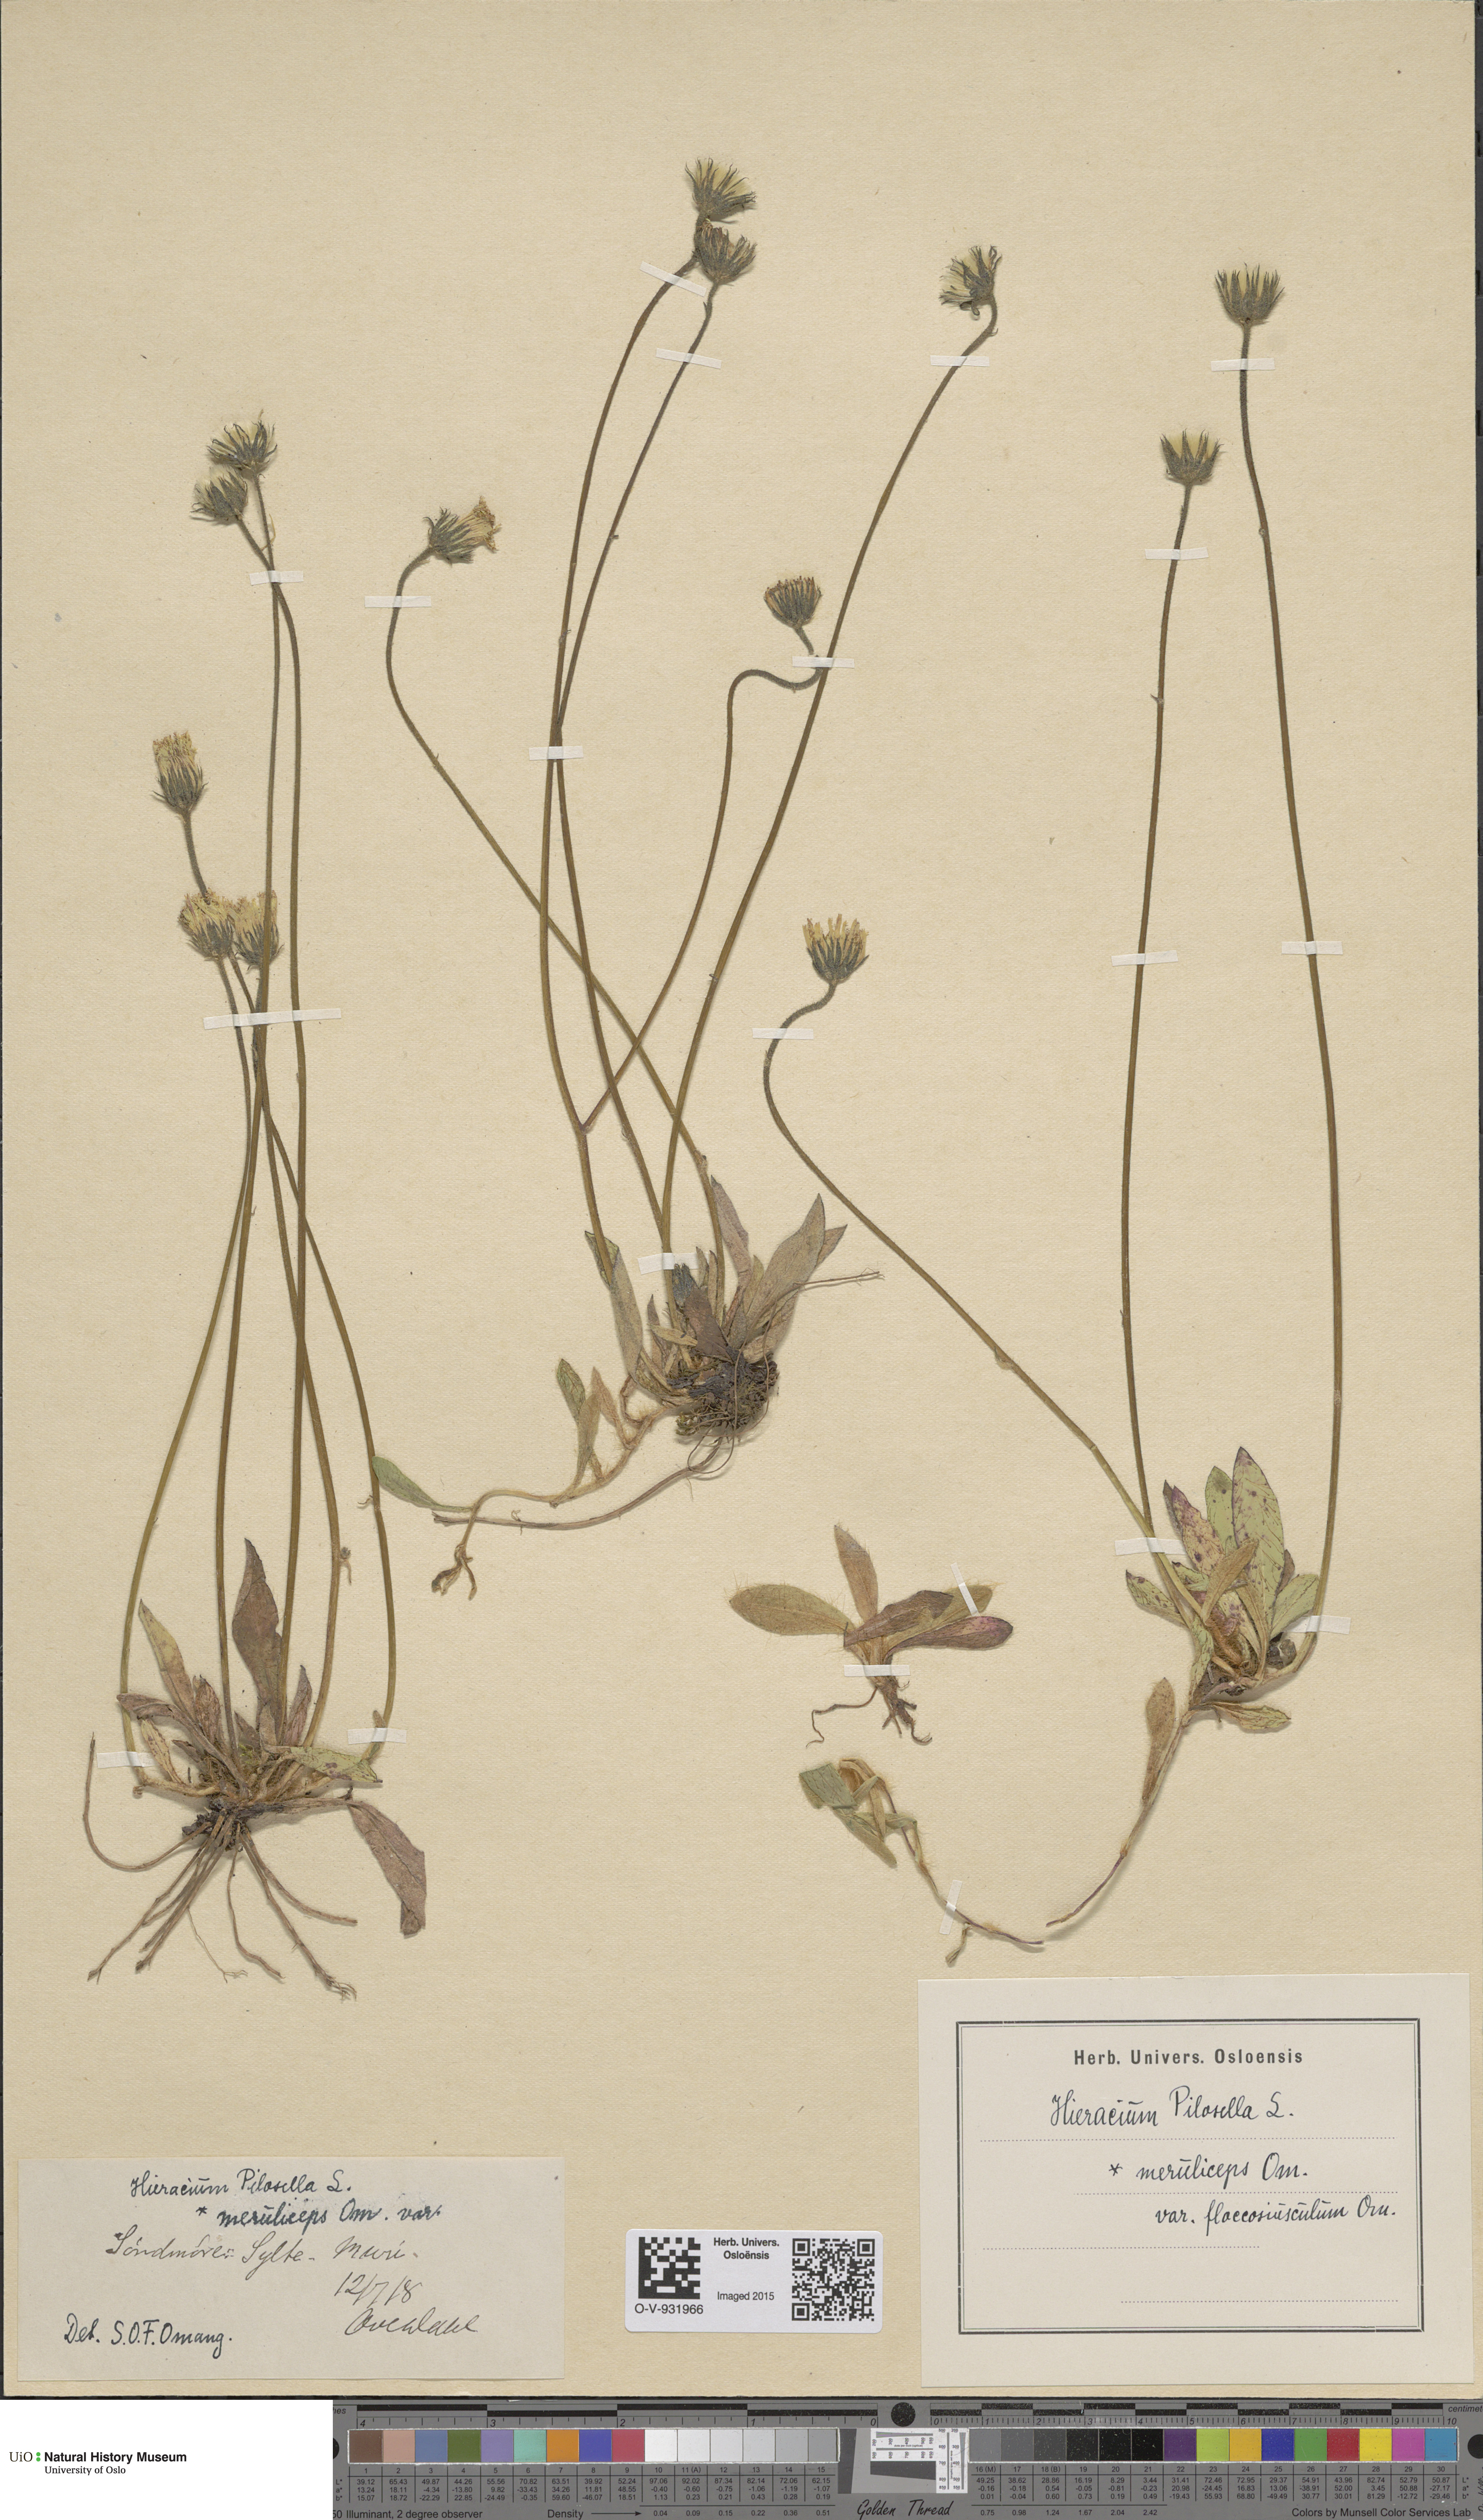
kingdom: Plantae
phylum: Tracheophyta
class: Magnoliopsida
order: Asterales
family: Asteraceae
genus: Pilosella
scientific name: Pilosella officinarum
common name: Mouse-ear hawkweed
